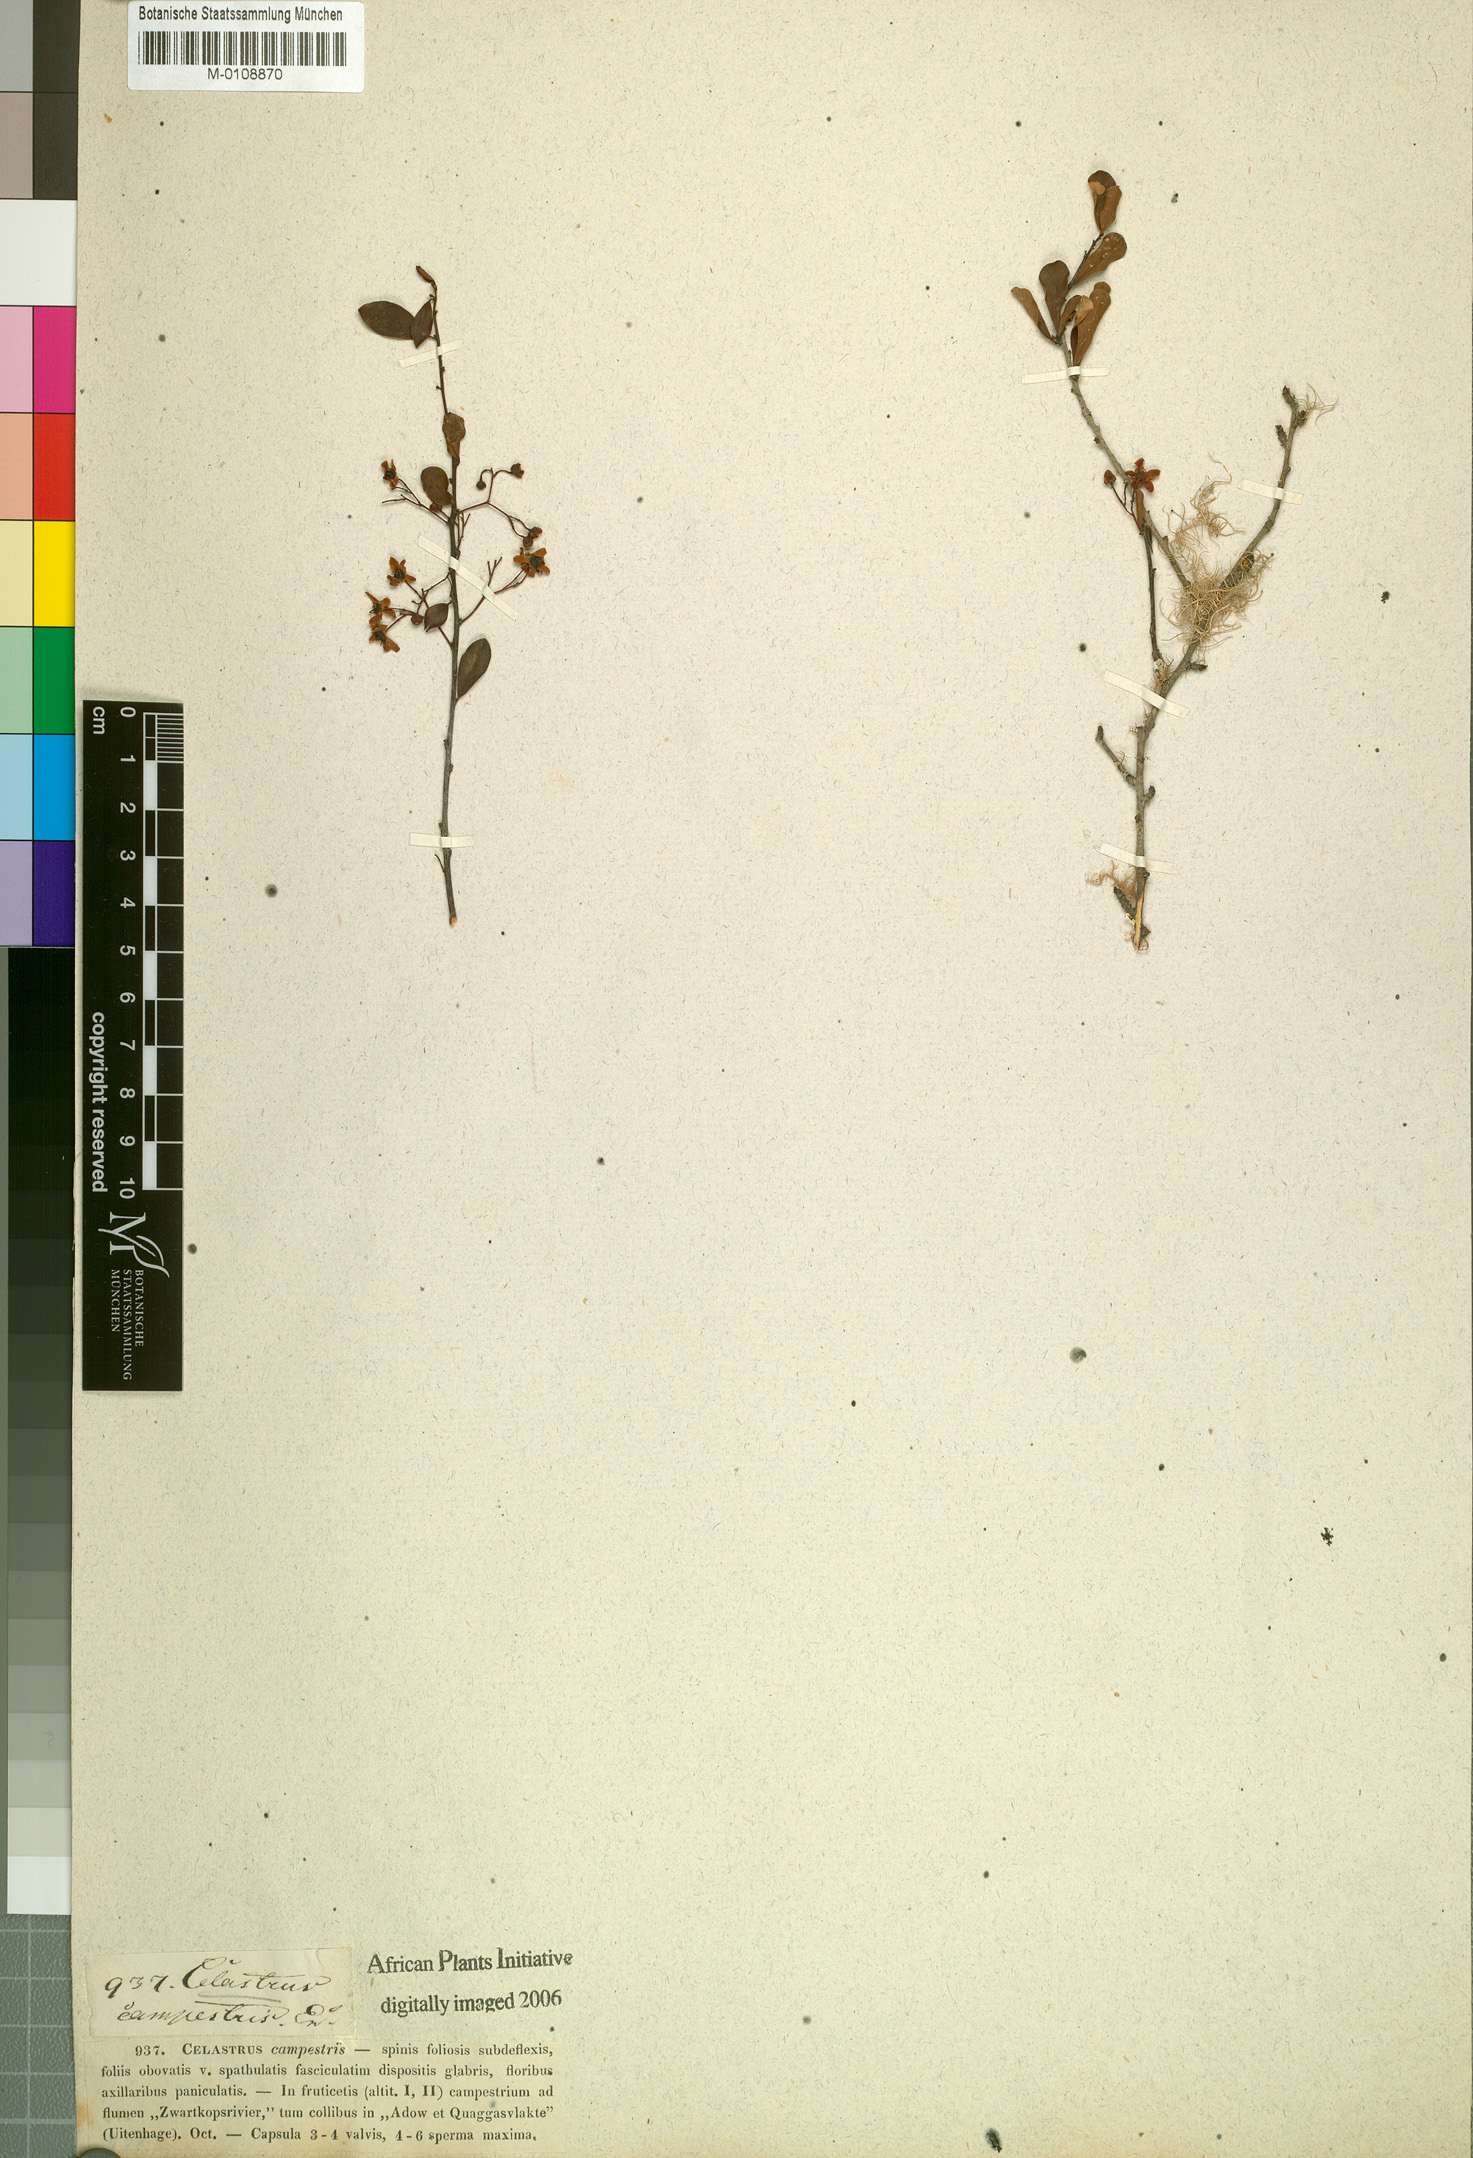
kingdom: Plantae
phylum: Tracheophyta
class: Magnoliopsida
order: Celastrales
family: Celastraceae
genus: Putterlickia
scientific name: Putterlickia pyracantha
